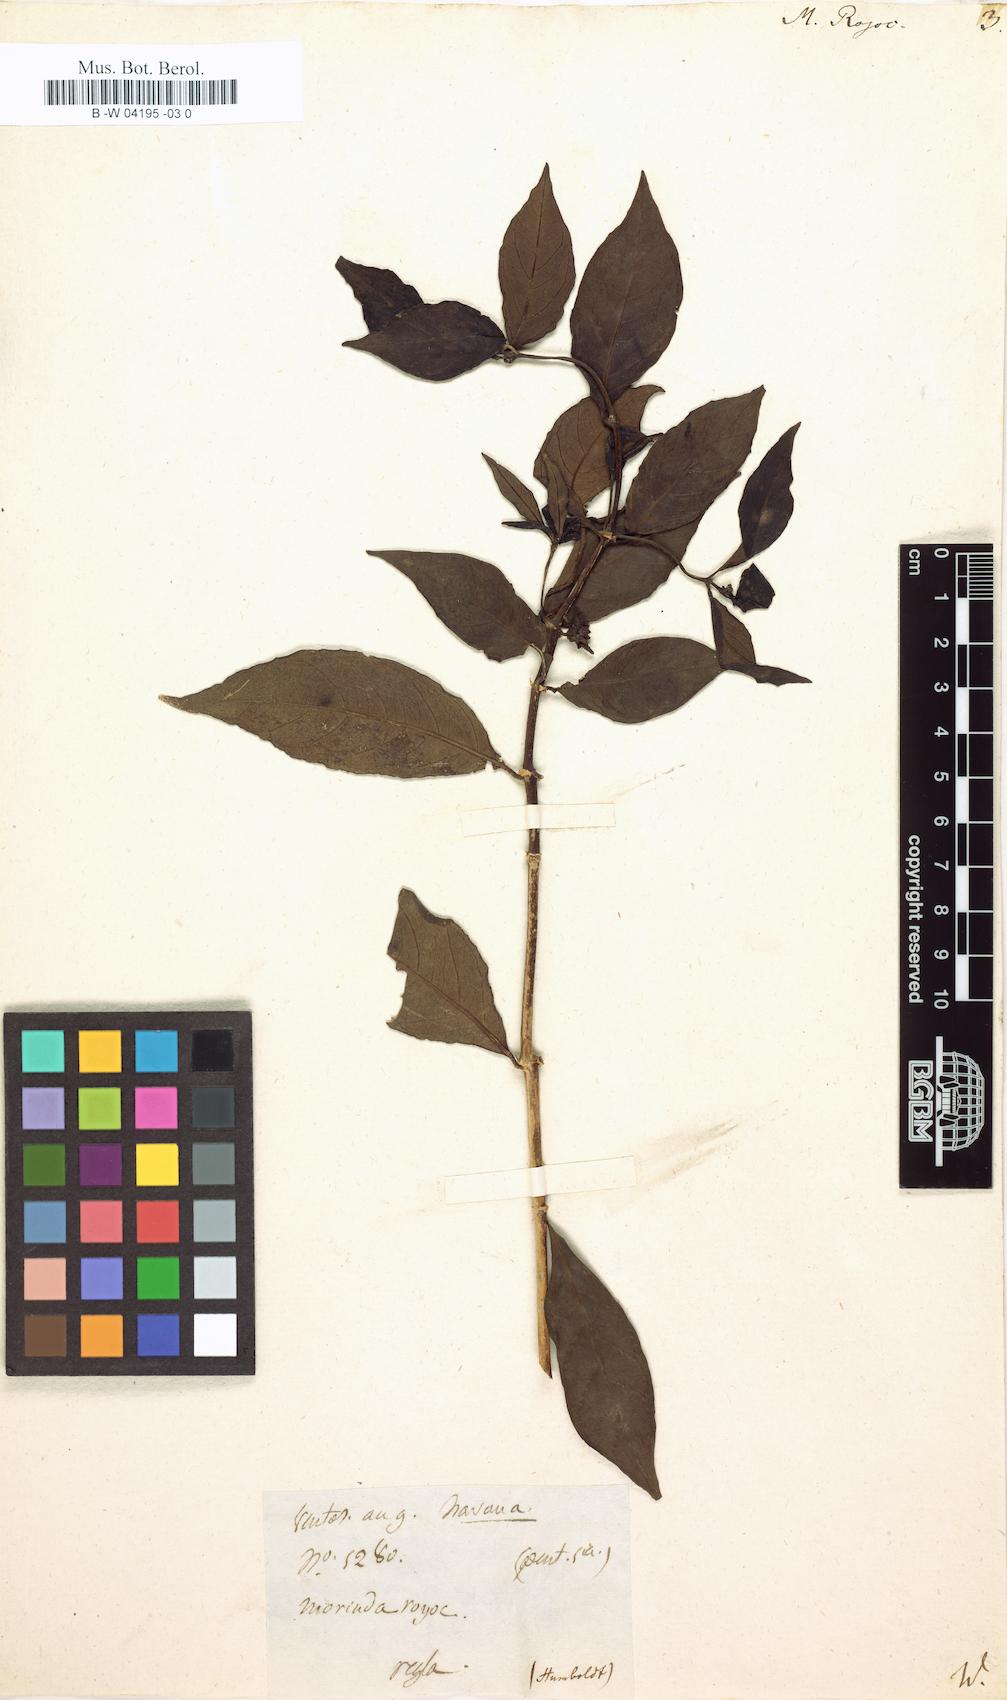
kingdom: Plantae
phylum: Tracheophyta
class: Magnoliopsida
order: Gentianales
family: Rubiaceae
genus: Morinda
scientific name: Morinda royoc
